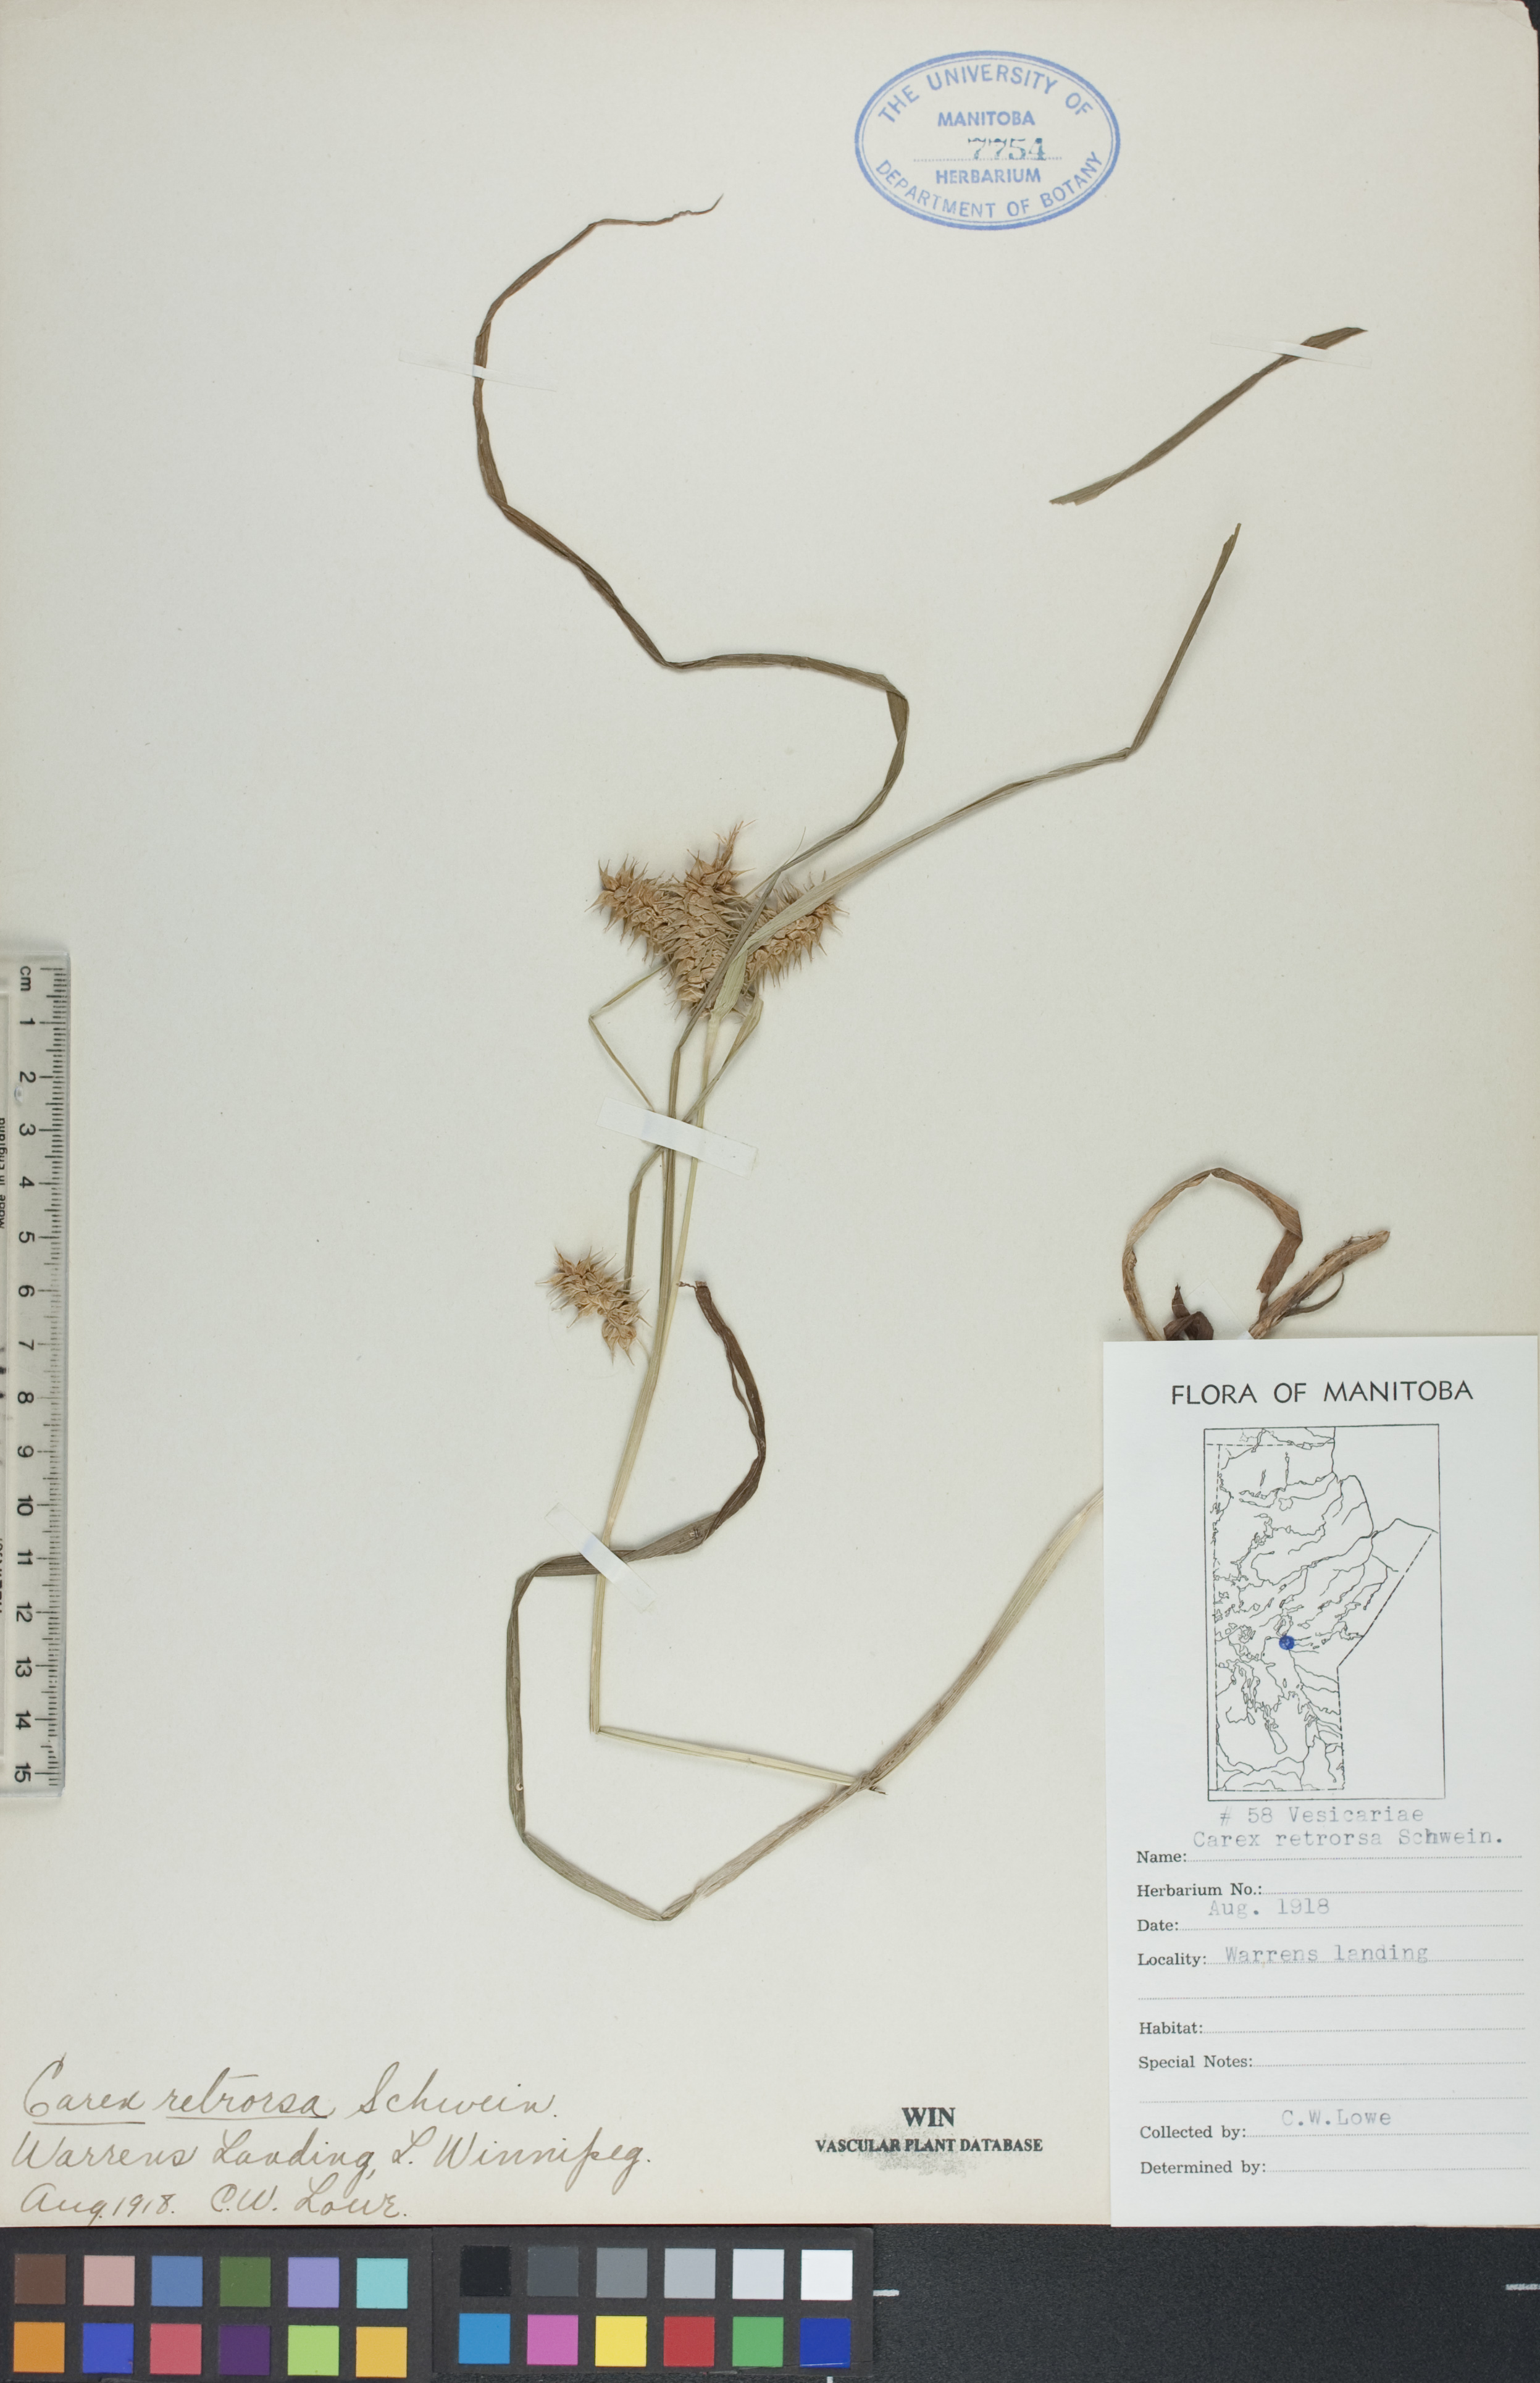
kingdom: Plantae
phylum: Tracheophyta
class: Liliopsida
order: Poales
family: Cyperaceae
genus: Carex
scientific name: Carex retrorsa
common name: Knot-sheath sedge
